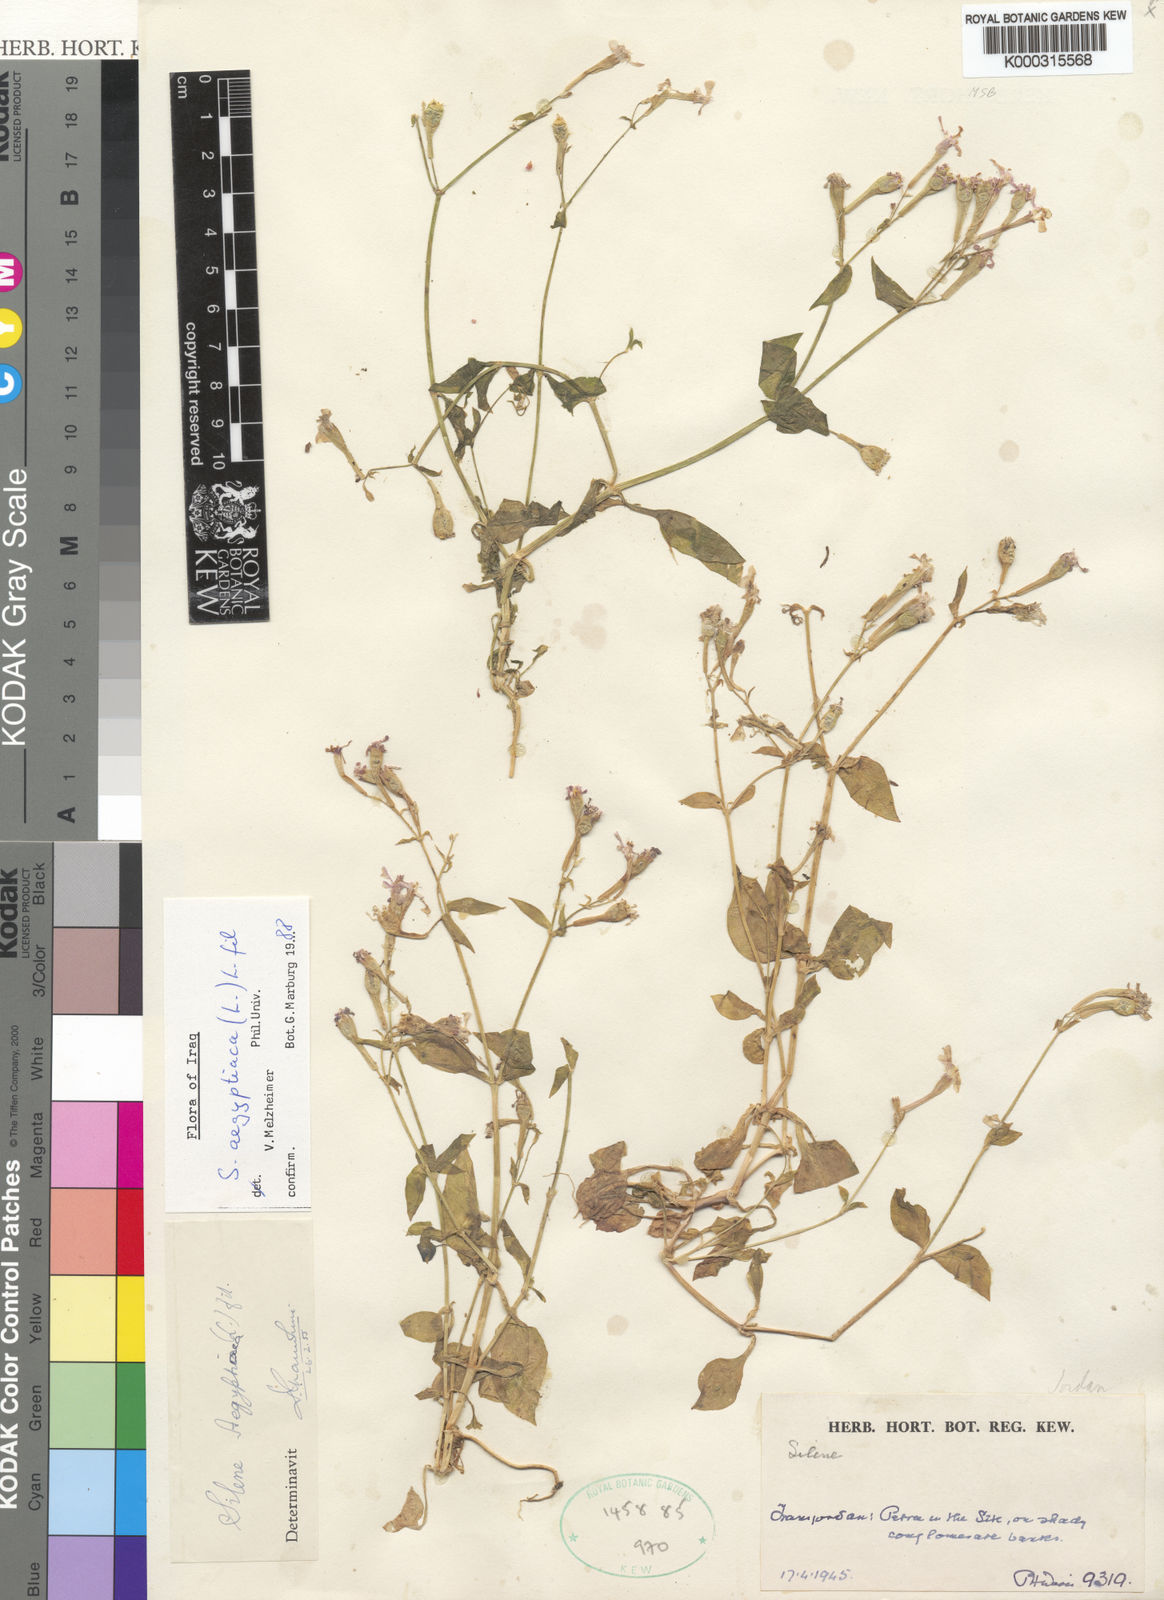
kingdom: Plantae
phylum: Tracheophyta
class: Magnoliopsida
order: Caryophyllales
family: Caryophyllaceae
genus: Silene
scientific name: Silene aegyptiaca
